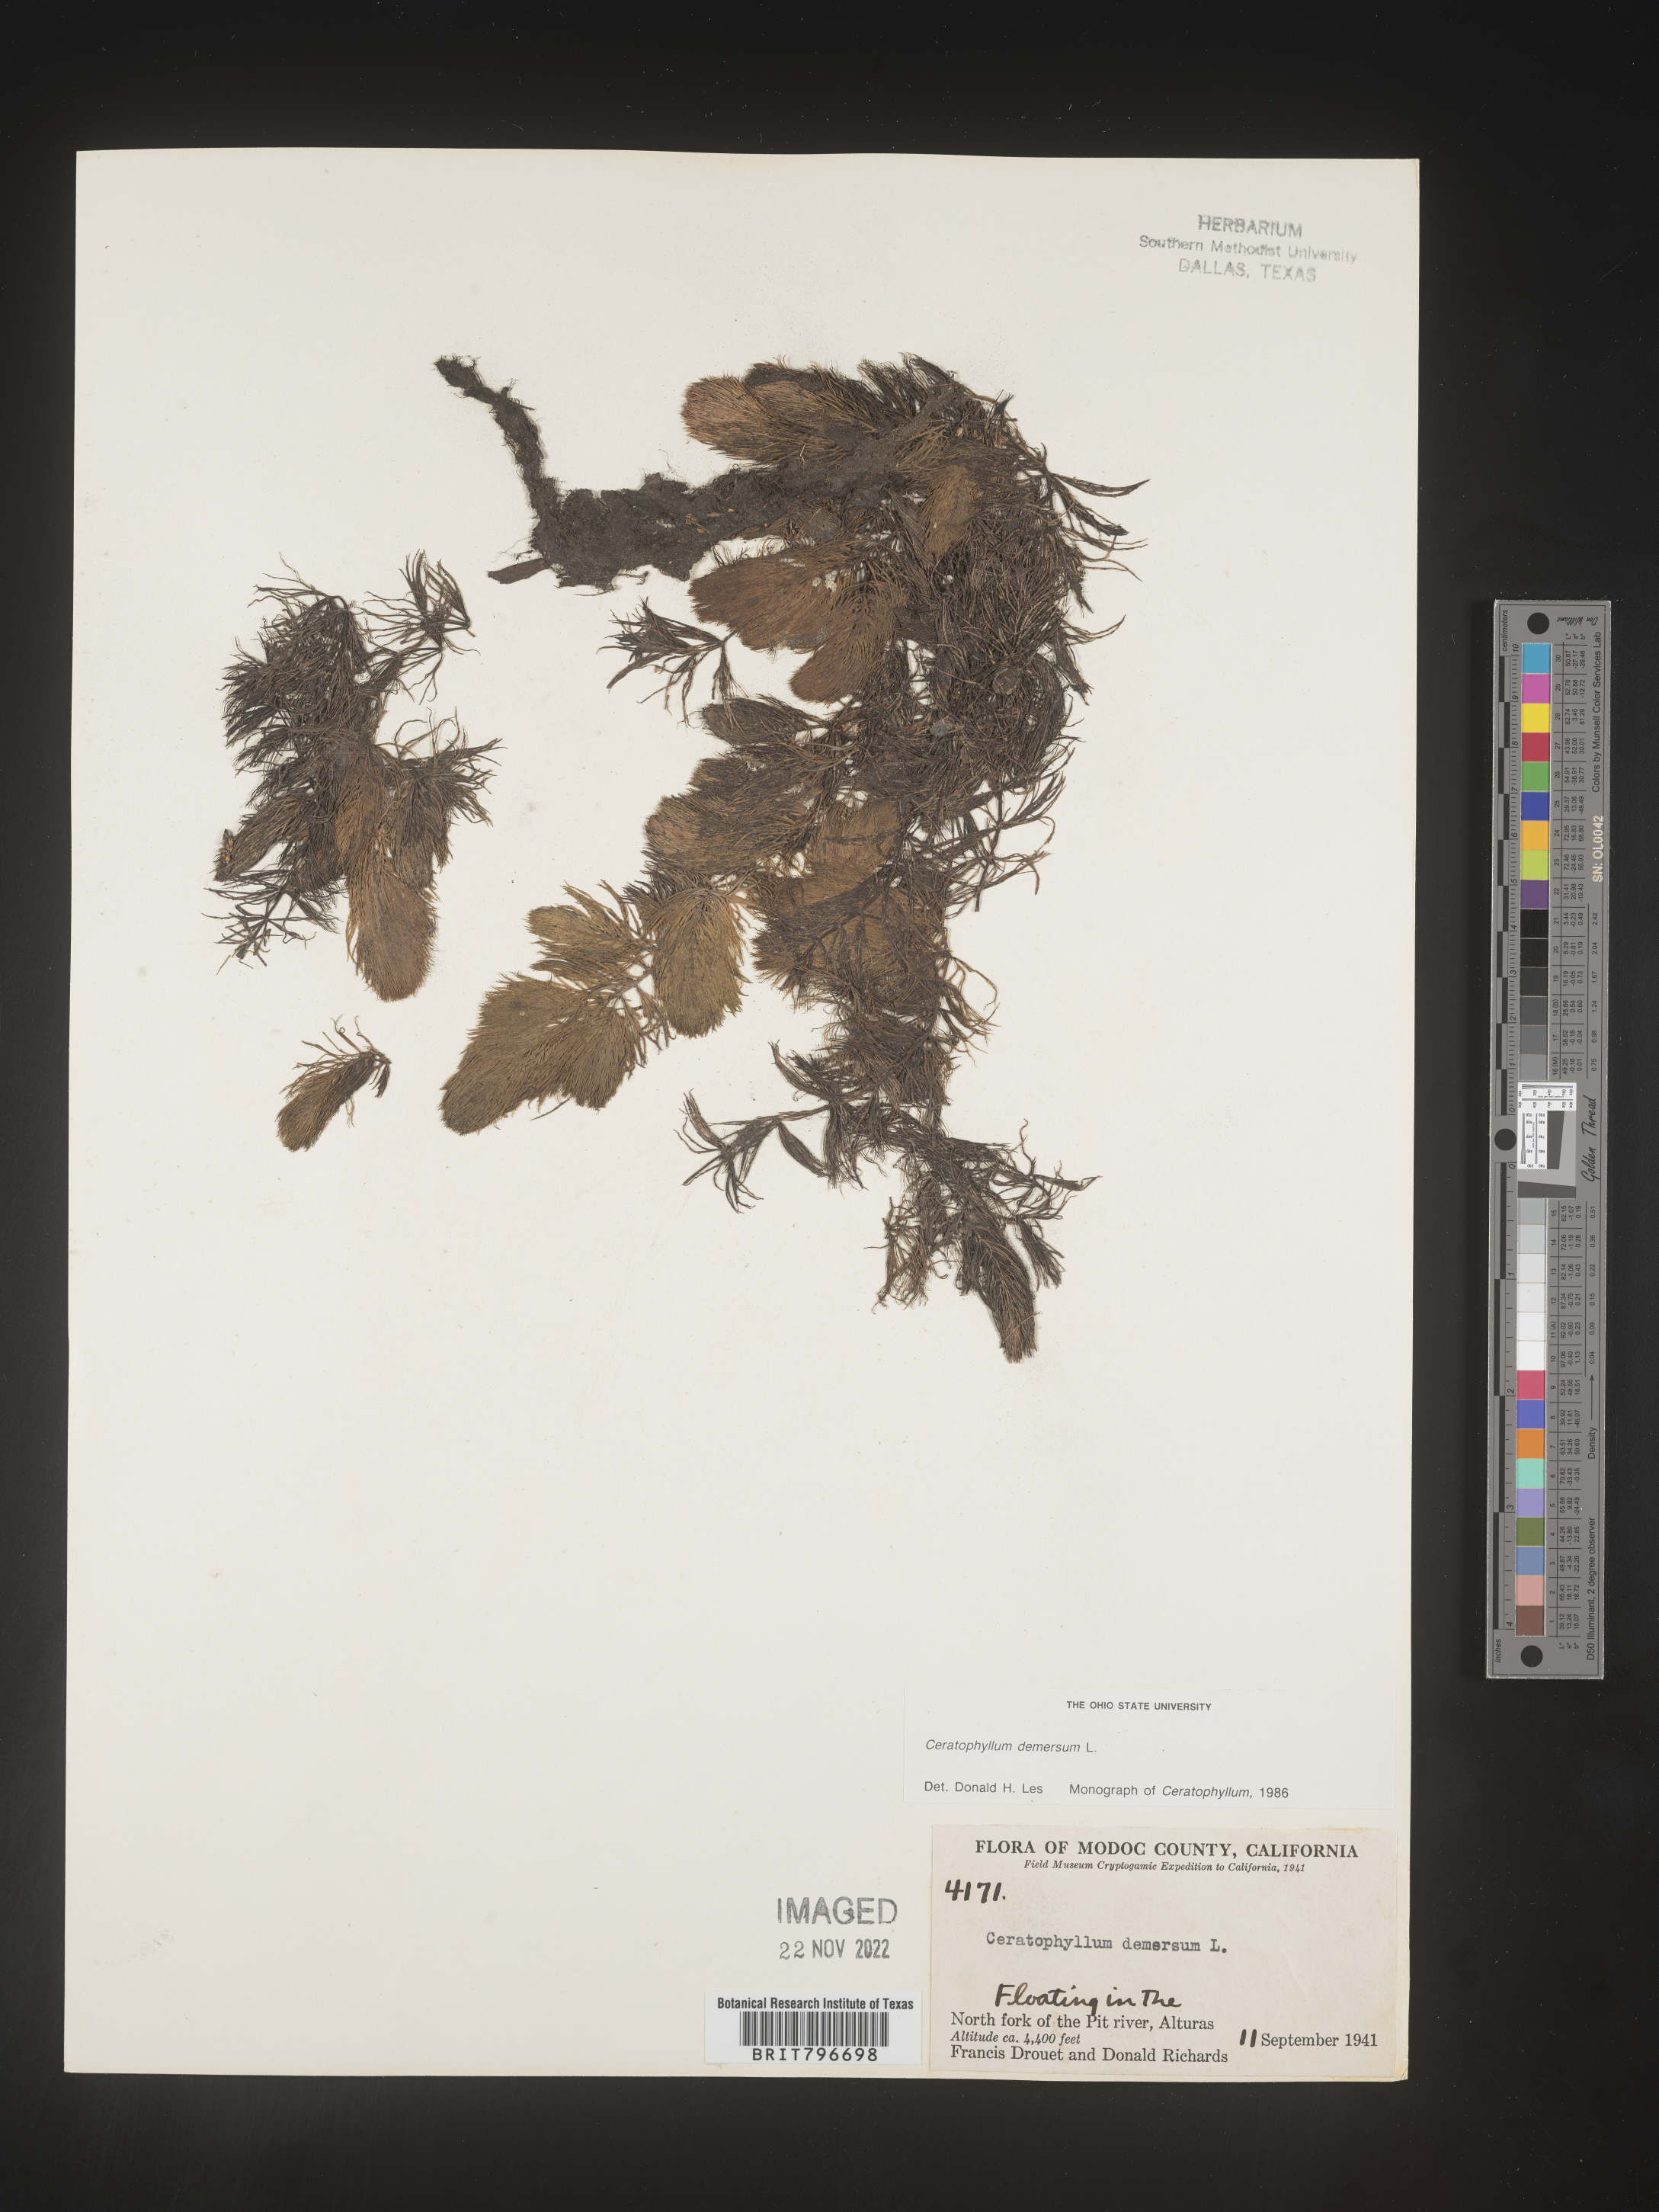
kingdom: Plantae
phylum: Tracheophyta
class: Magnoliopsida
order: Ceratophyllales
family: Ceratophyllaceae
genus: Ceratophyllum
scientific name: Ceratophyllum demersum
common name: Rigid hornwort
